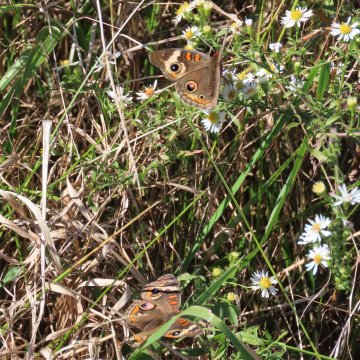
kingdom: Animalia
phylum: Arthropoda
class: Insecta
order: Lepidoptera
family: Nymphalidae
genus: Junonia
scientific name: Junonia coenia
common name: Common Buckeye
